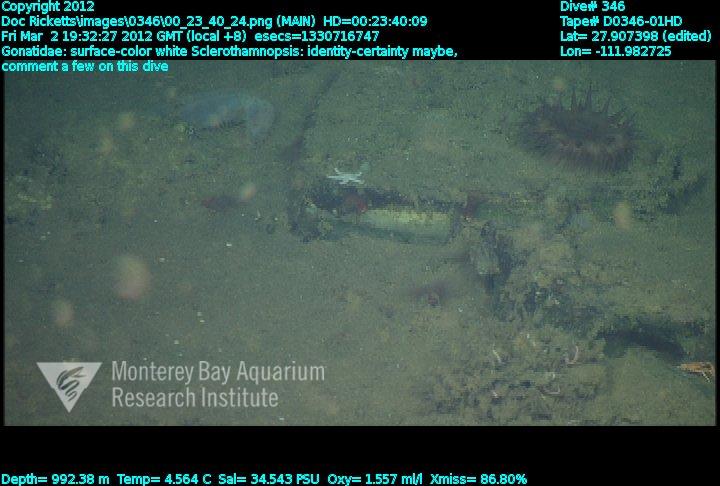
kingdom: Animalia
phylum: Porifera
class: Hexactinellida
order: Sceptrulophora
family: Tretodictyidae
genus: Sclerothamnopsis
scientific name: Sclerothamnopsis
